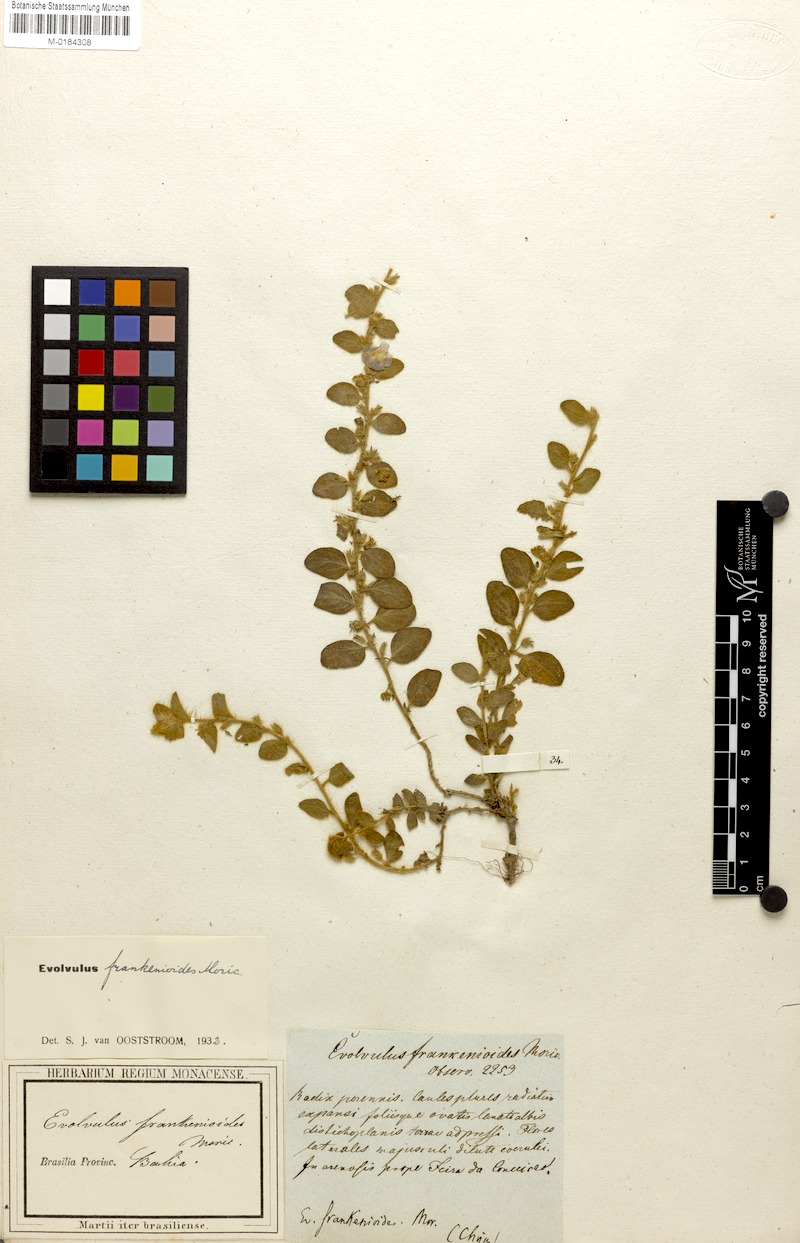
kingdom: Plantae
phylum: Tracheophyta
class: Magnoliopsida
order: Solanales
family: Convolvulaceae
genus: Evolvulus
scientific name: Evolvulus frankenioides
